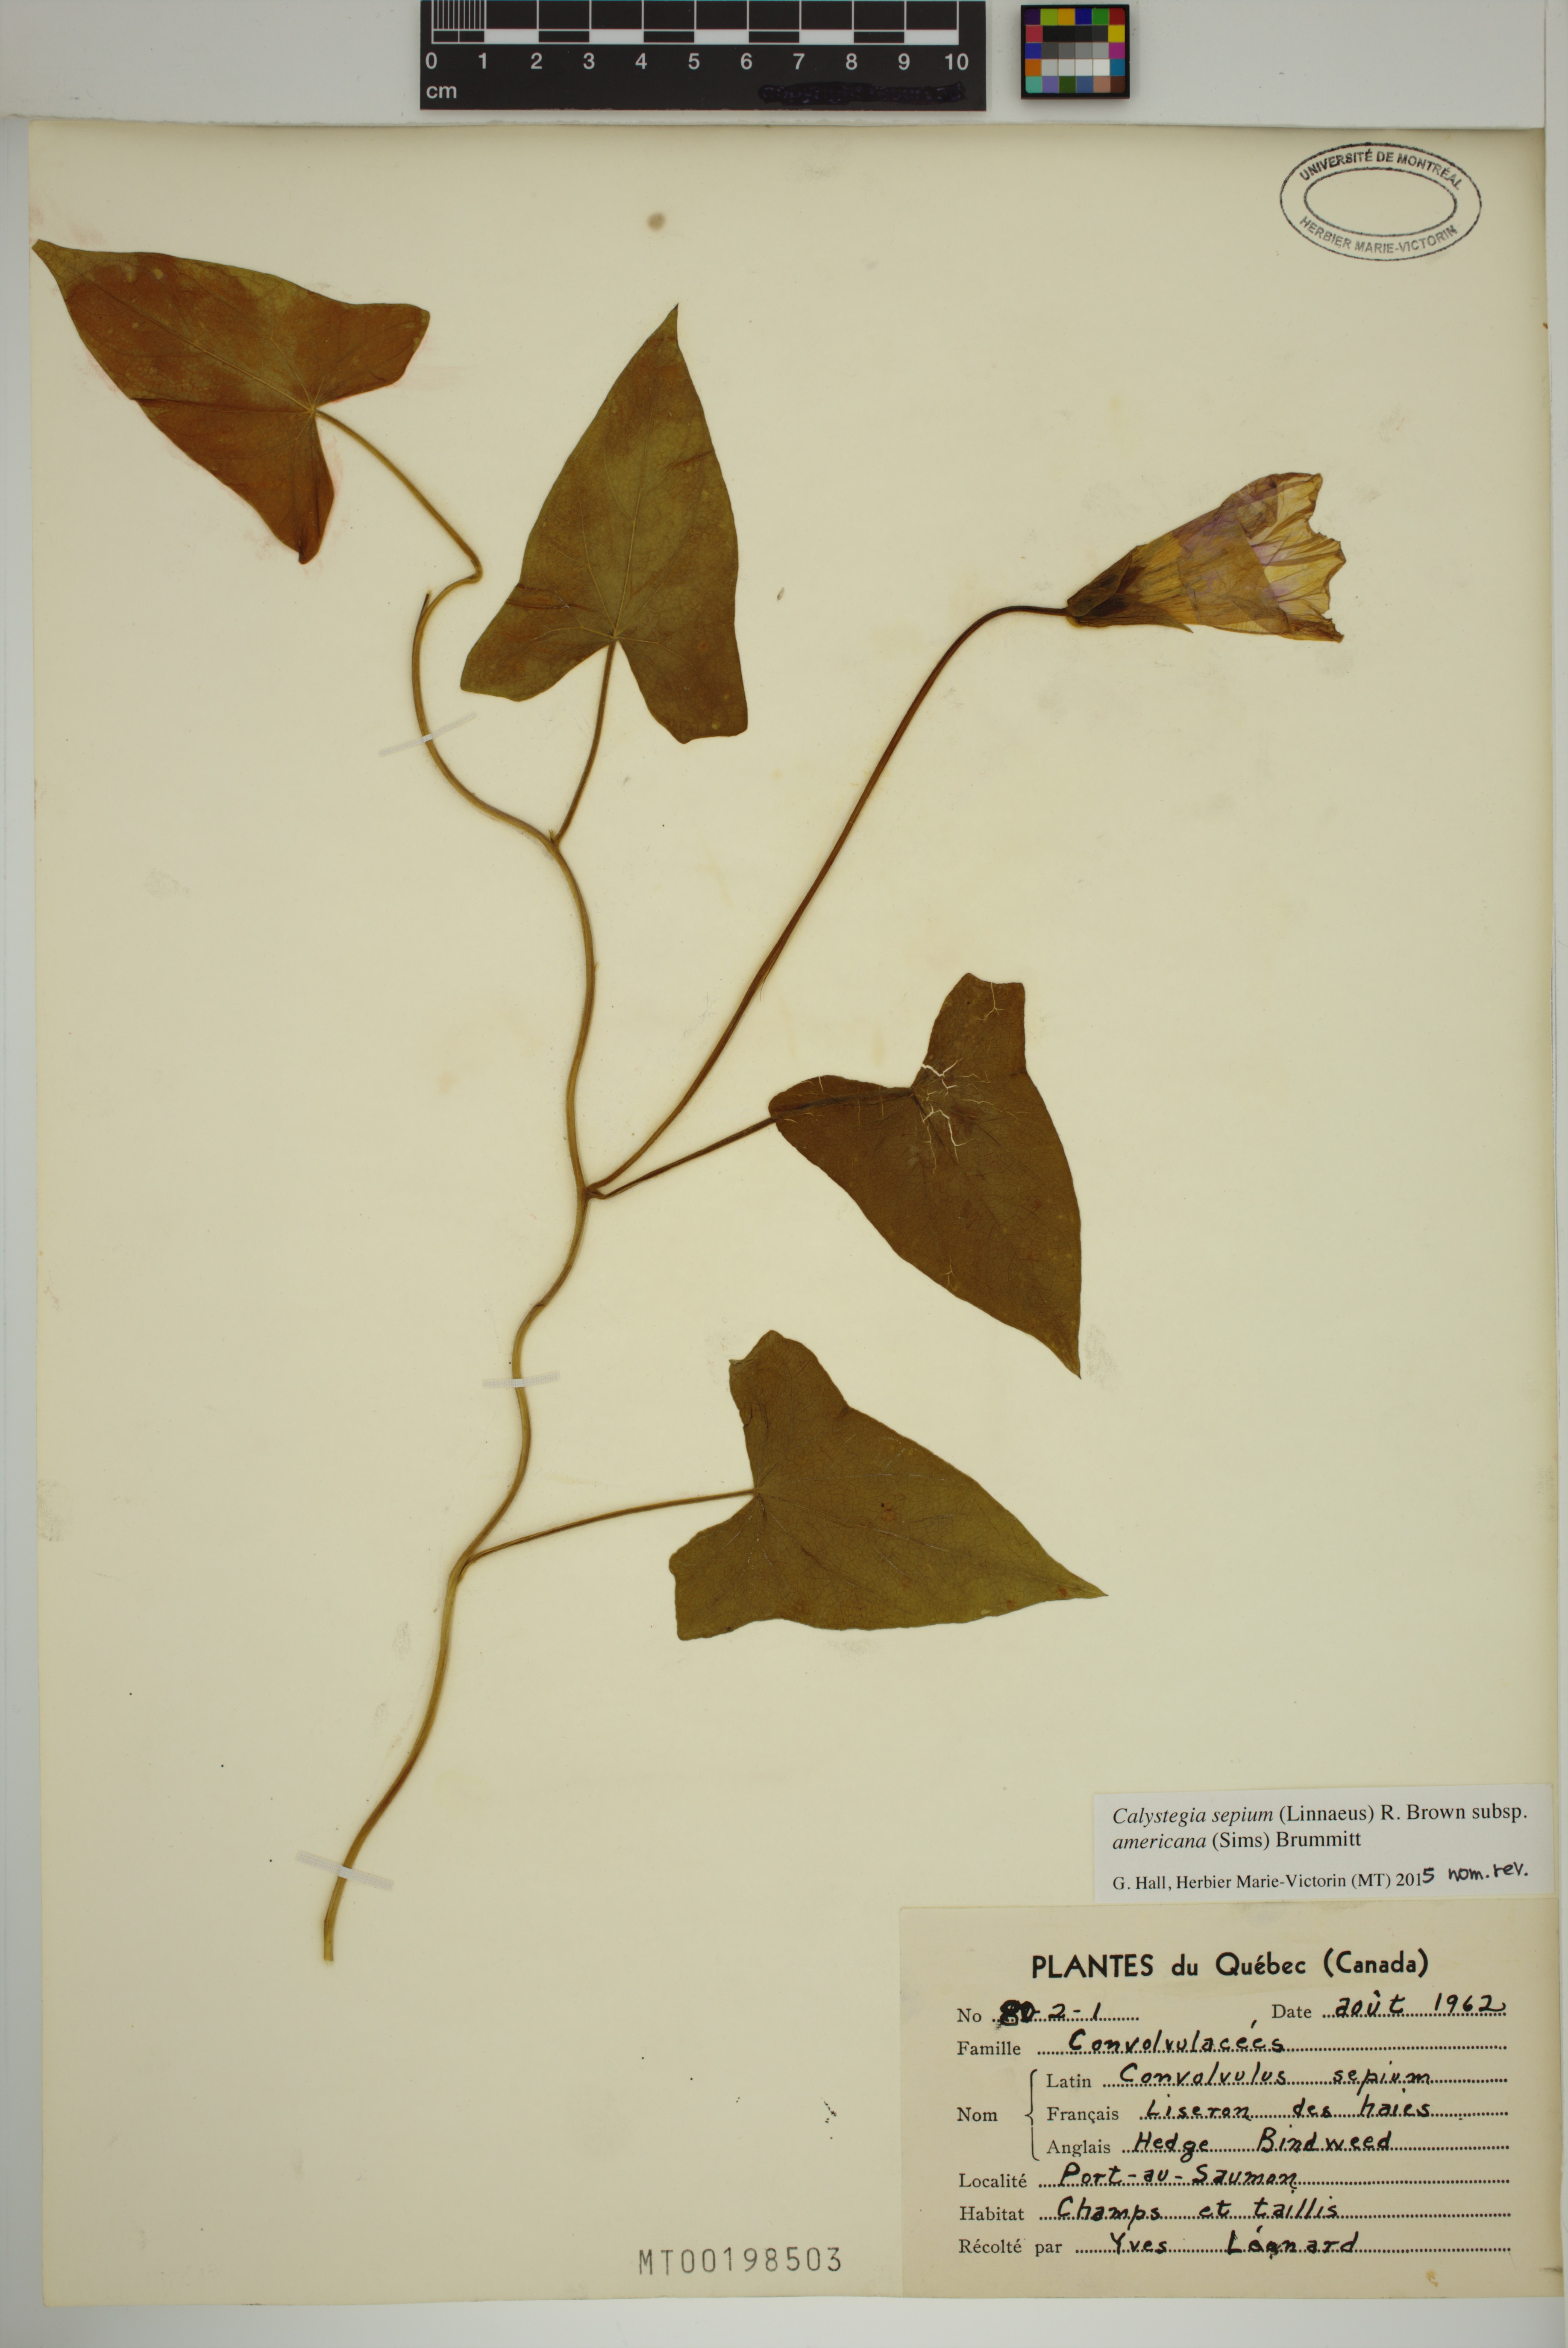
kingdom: Plantae
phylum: Tracheophyta
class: Magnoliopsida
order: Solanales
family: Convolvulaceae
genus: Calystegia
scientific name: Calystegia sepium
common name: Hedge bindweed
